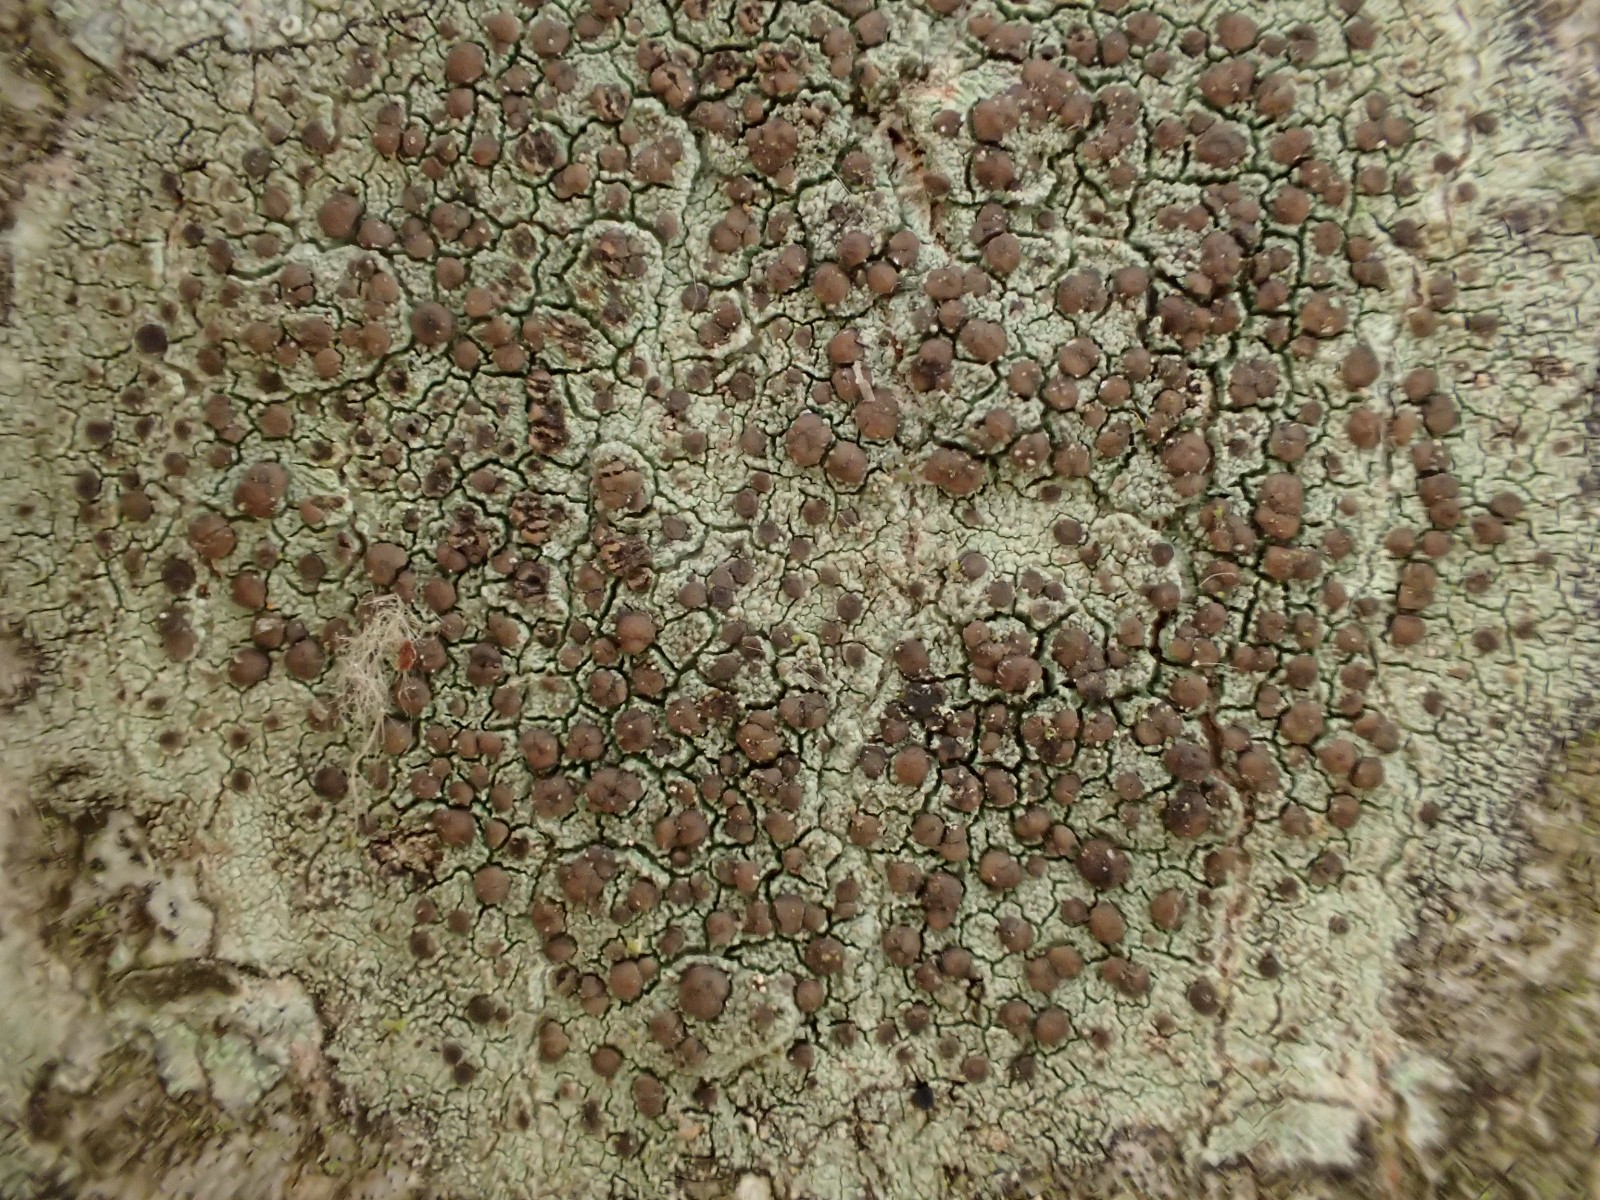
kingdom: Fungi
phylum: Ascomycota
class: Lecanoromycetes
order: Lecanorales
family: Lecanoraceae
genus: Lecidella
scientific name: Lecidella elaeochroma
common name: grågrøn skivelav
